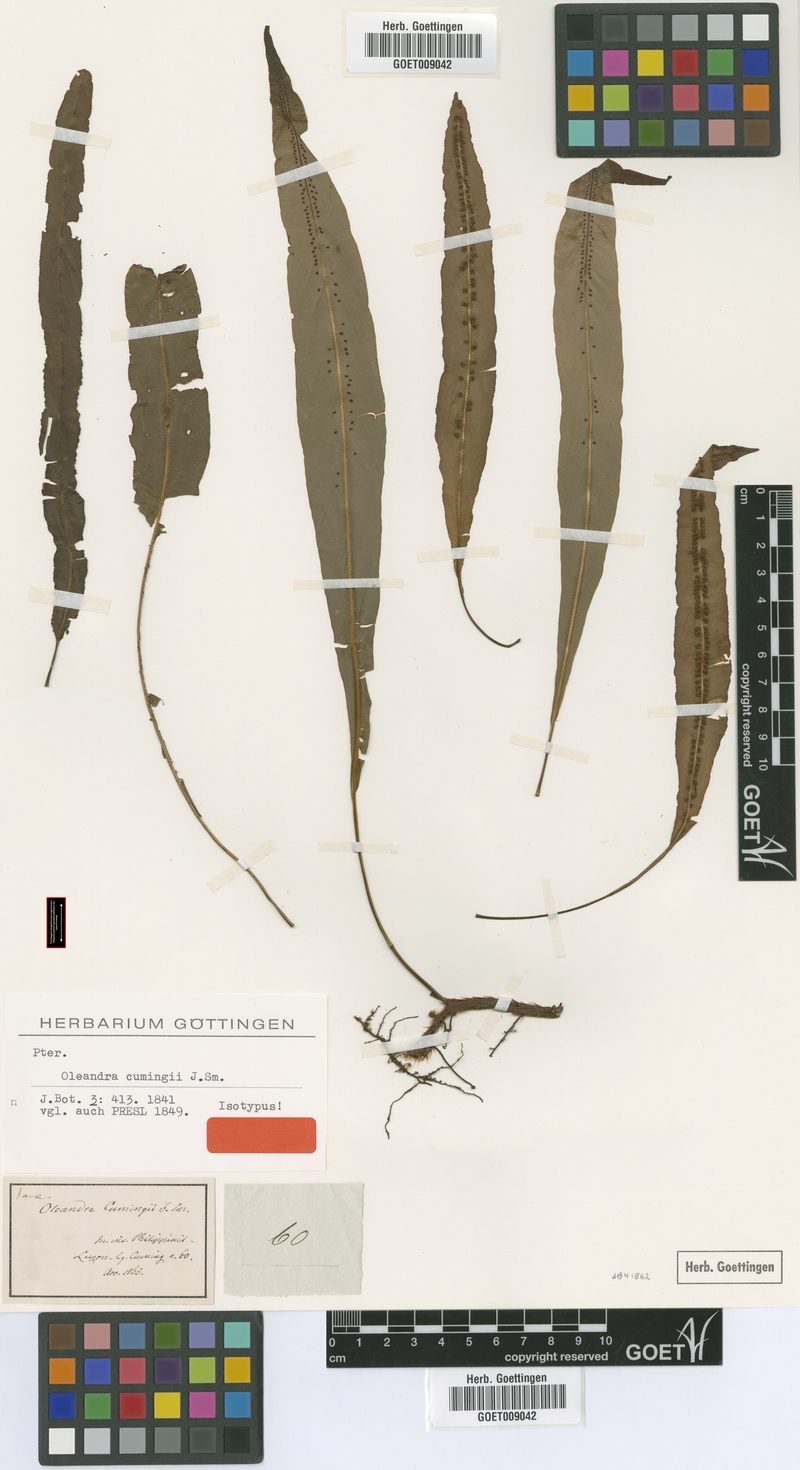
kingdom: Plantae
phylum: Tracheophyta
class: Polypodiopsida
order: Polypodiales
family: Oleandraceae
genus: Oleandra
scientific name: Oleandra cumingii
